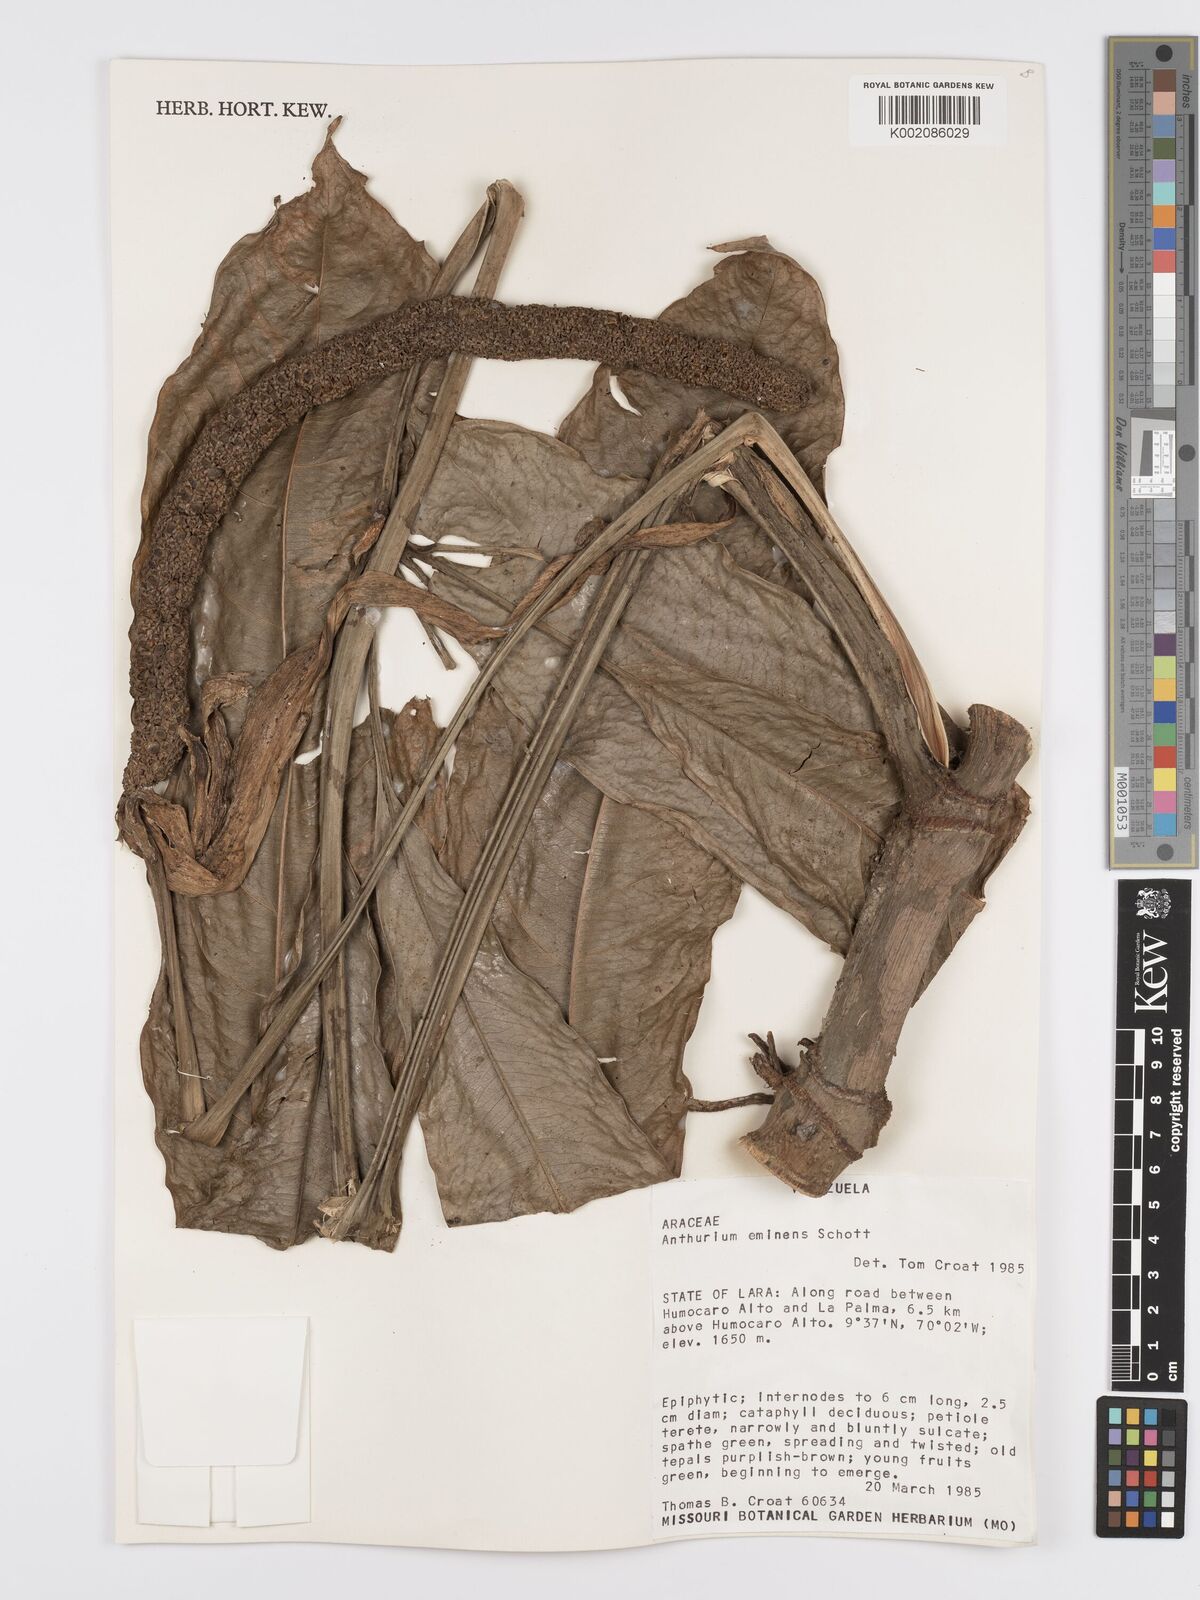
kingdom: Plantae
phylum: Tracheophyta
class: Liliopsida
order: Alismatales
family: Araceae
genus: Anthurium
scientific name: Anthurium eminens
